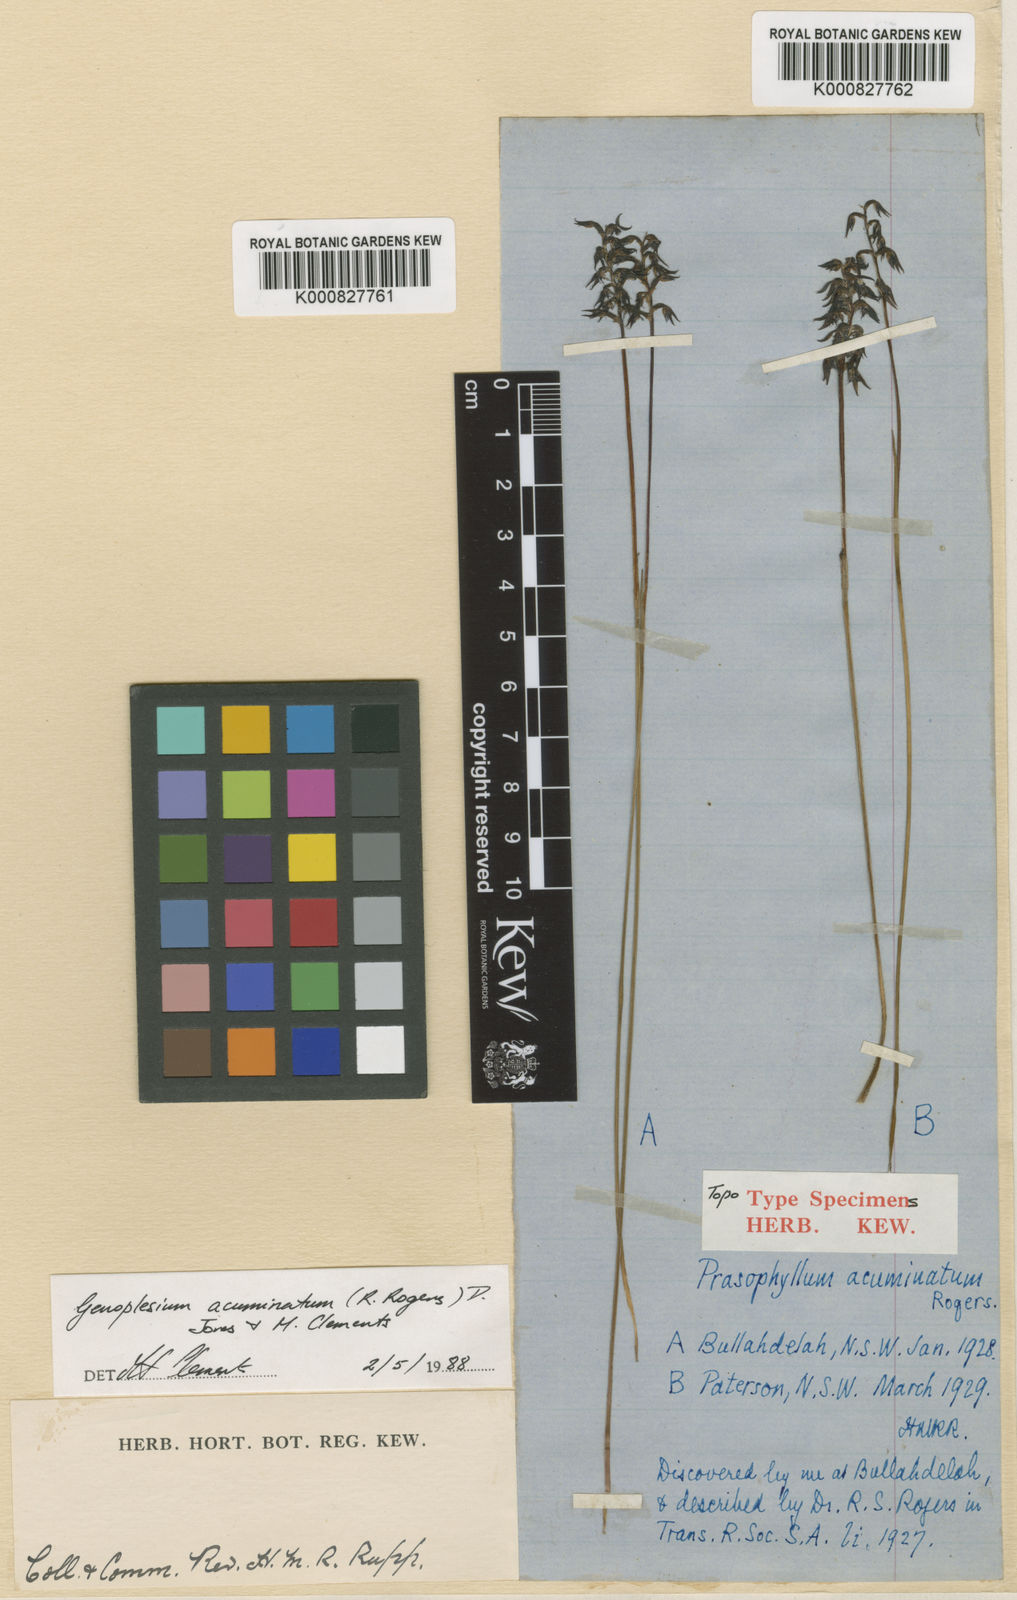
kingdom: Plantae
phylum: Tracheophyta
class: Liliopsida
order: Asparagales
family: Orchidaceae
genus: Genoplesium
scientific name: Genoplesium acuminatum
